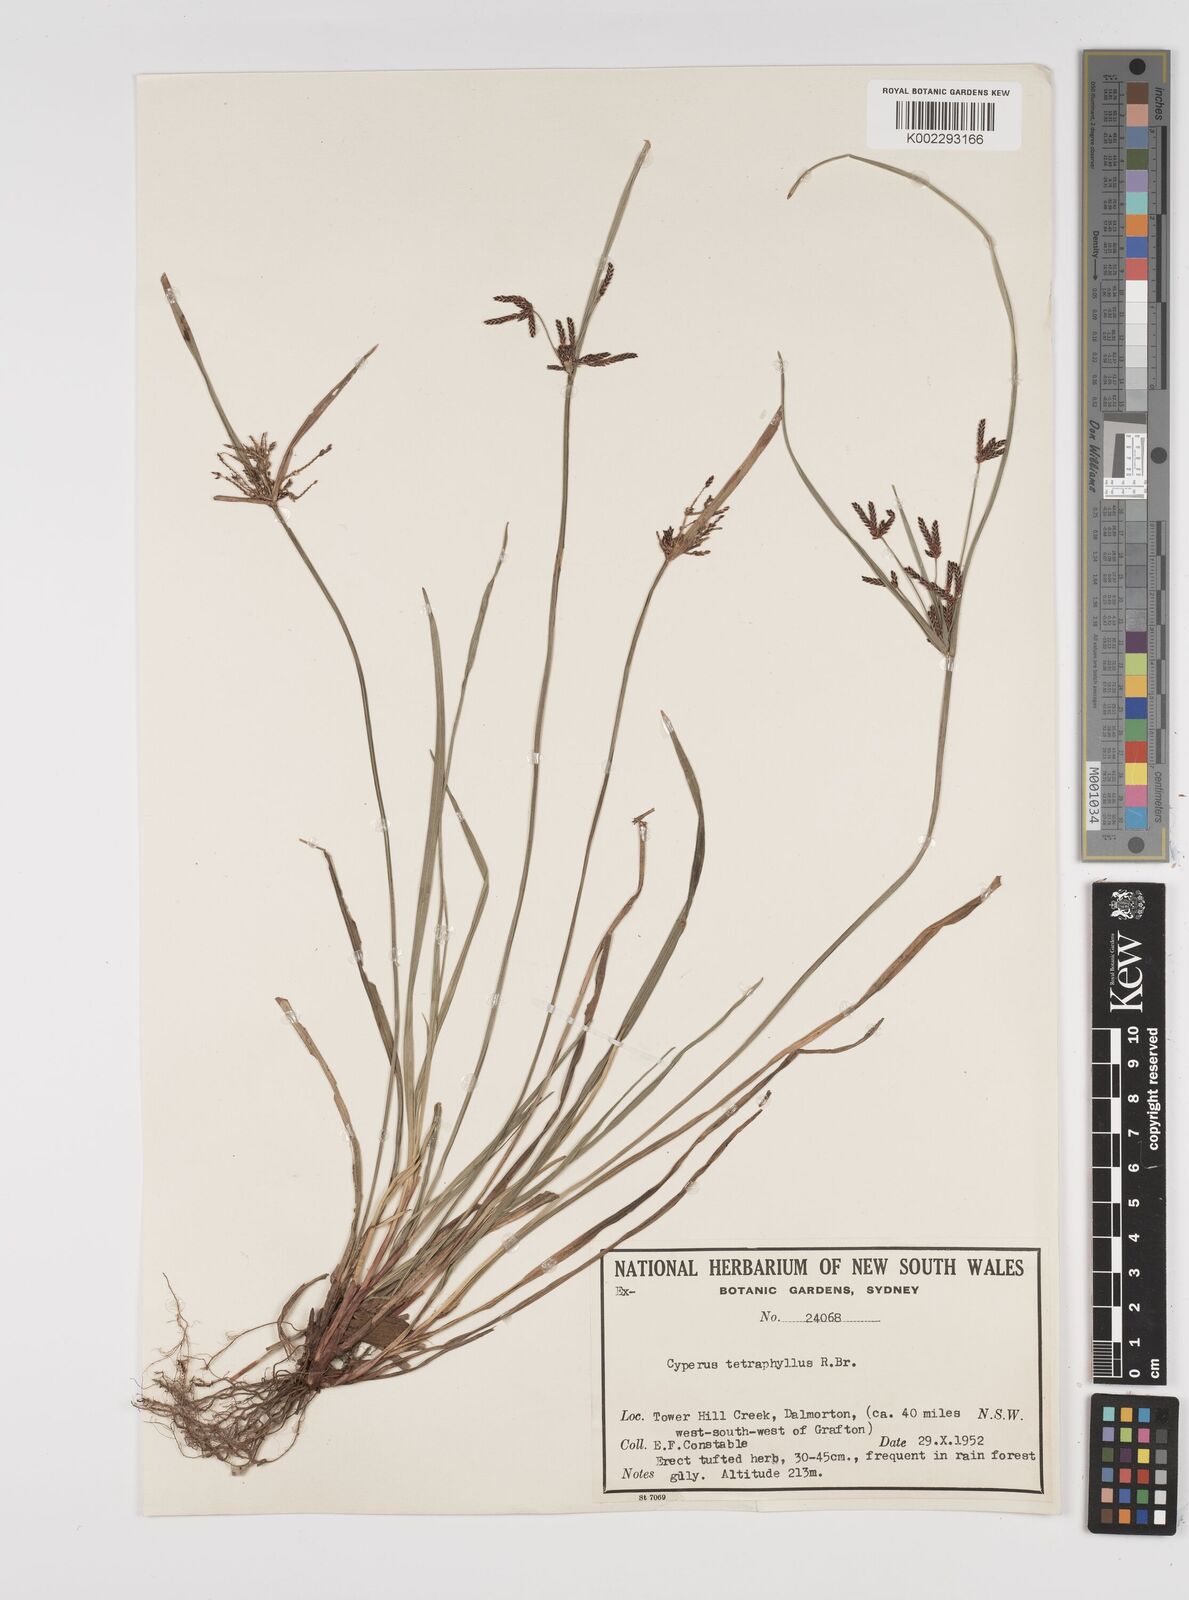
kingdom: Plantae
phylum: Tracheophyta
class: Liliopsida
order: Poales
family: Cyperaceae
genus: Cyperus
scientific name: Cyperus tetraphyllus
